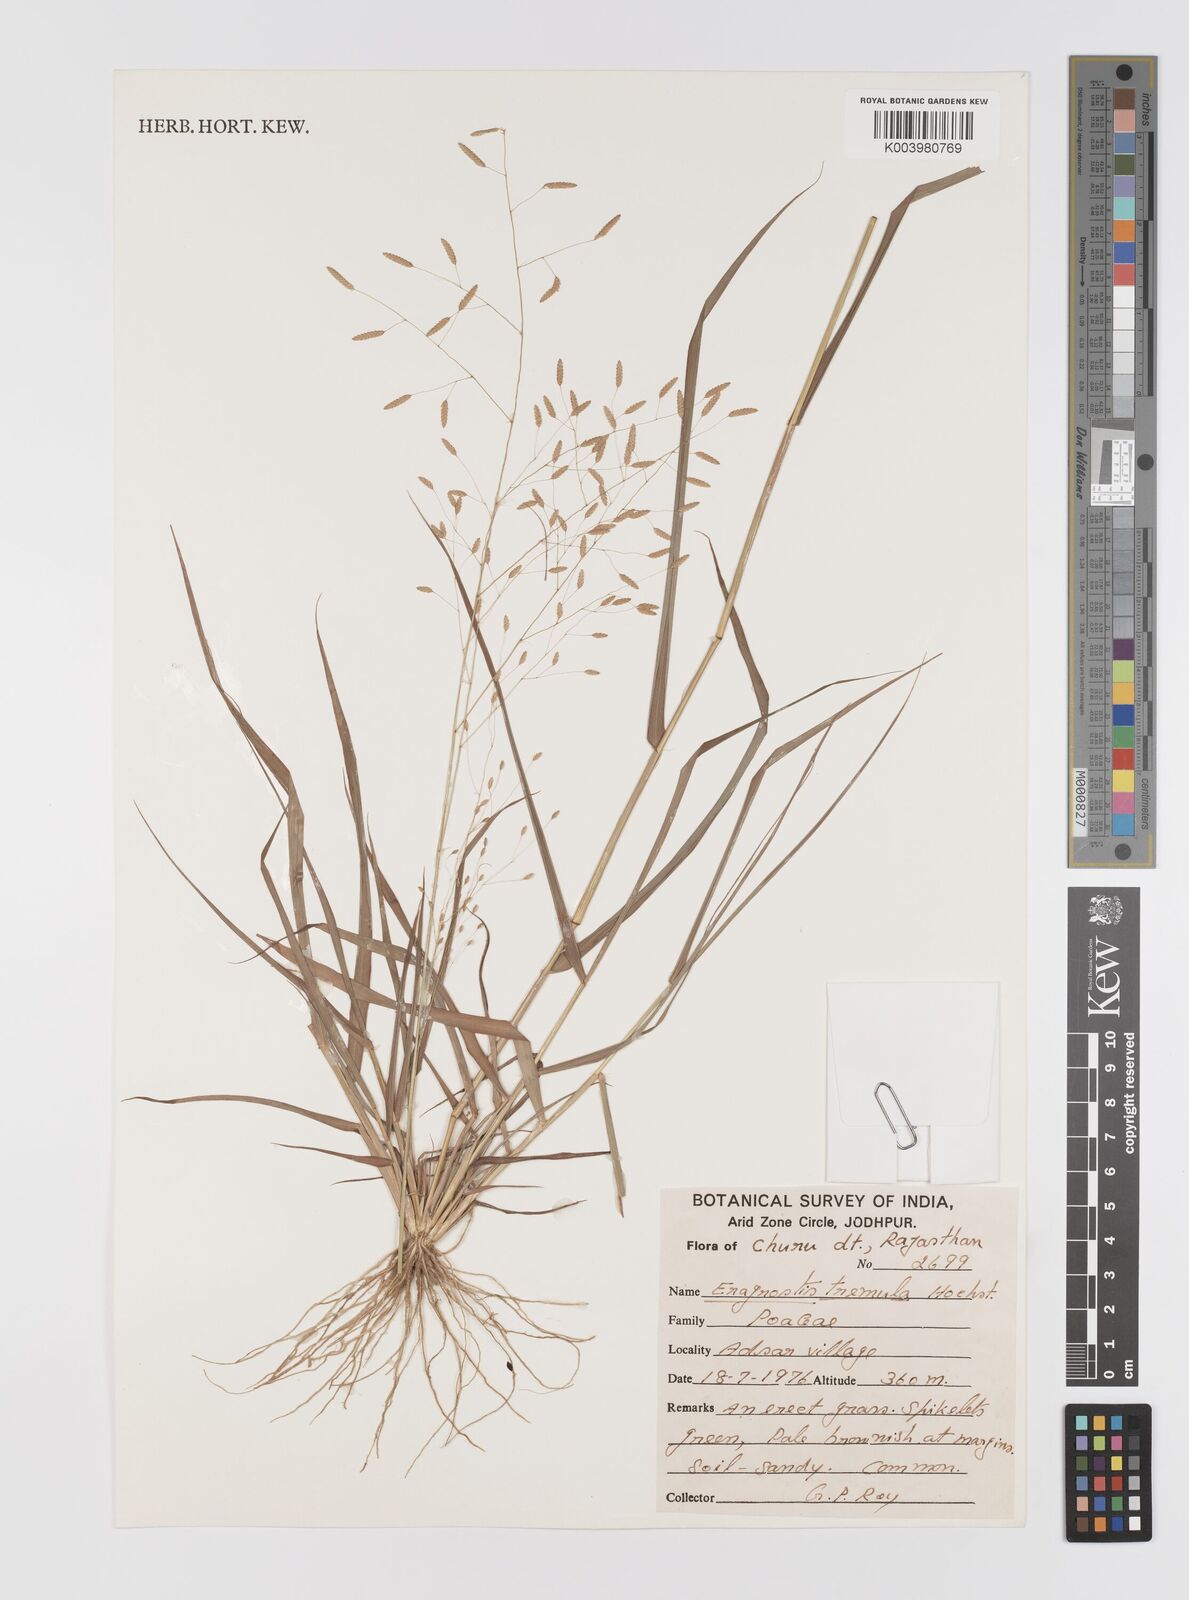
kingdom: Plantae
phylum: Tracheophyta
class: Liliopsida
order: Poales
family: Poaceae
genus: Eragrostis
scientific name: Eragrostis tremula
